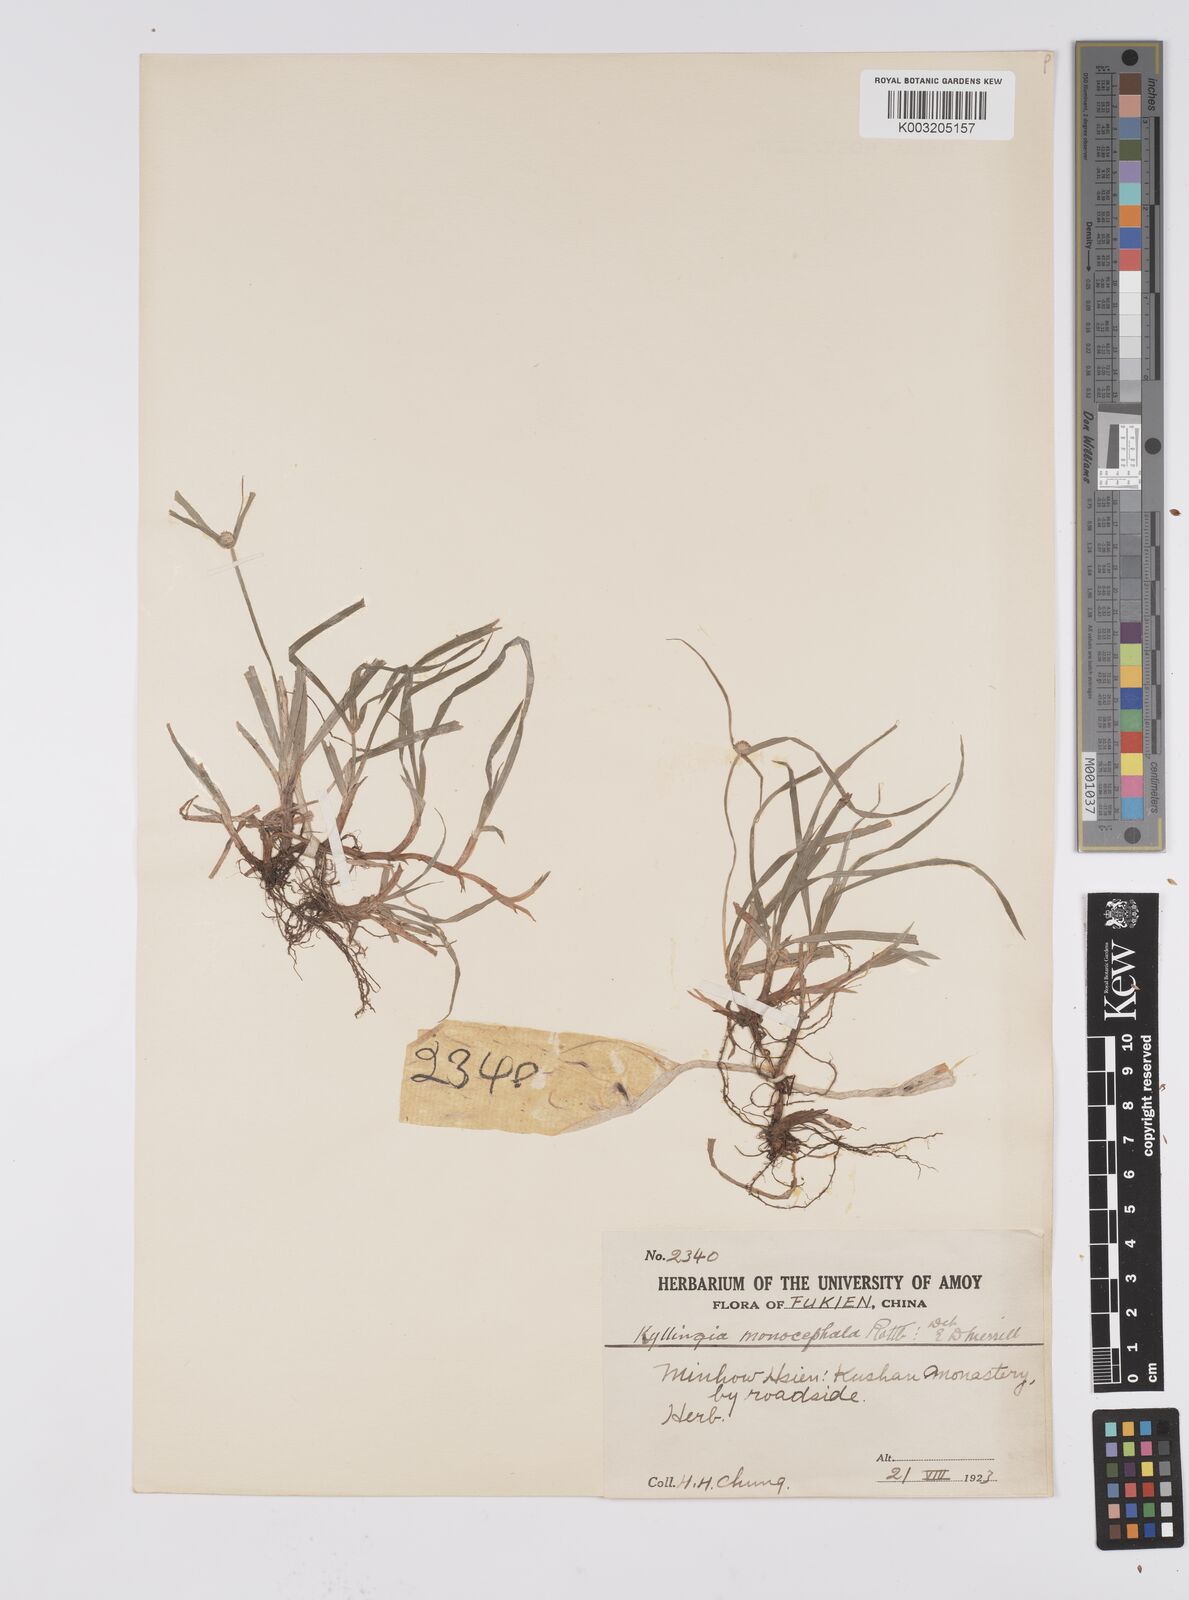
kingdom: Plantae
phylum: Tracheophyta
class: Liliopsida
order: Poales
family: Cyperaceae
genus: Cyperus
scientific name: Cyperus nemoralis
